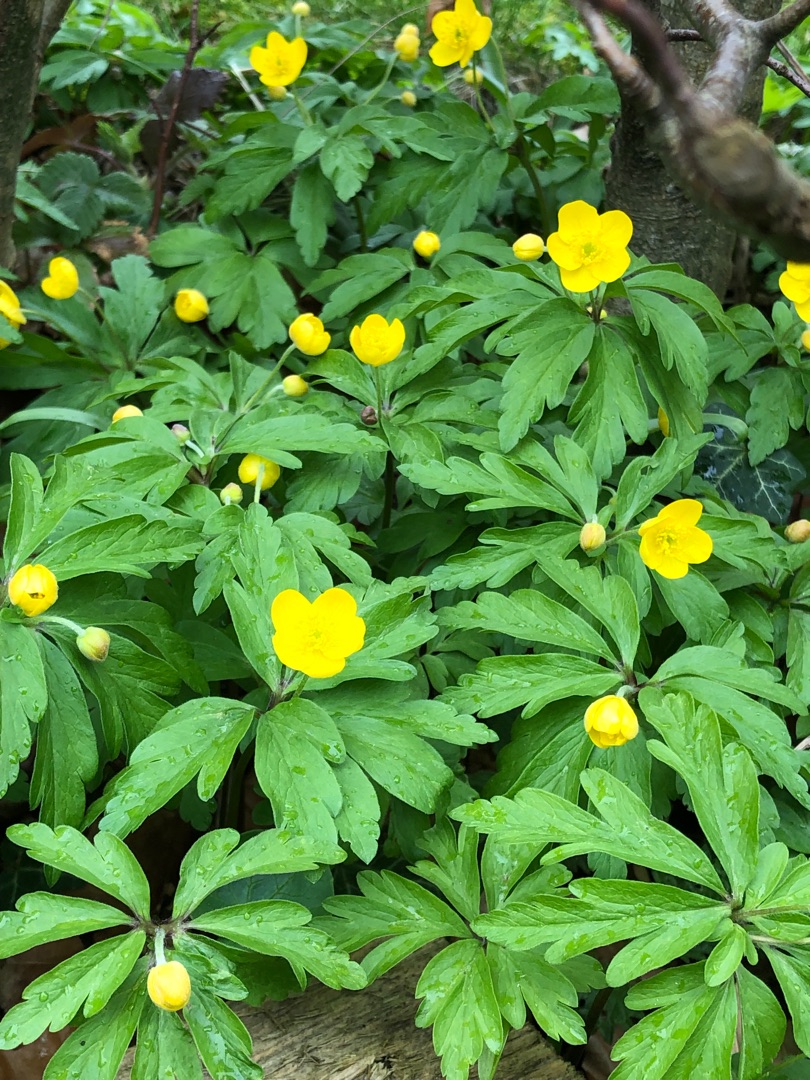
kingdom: Plantae
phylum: Tracheophyta
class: Magnoliopsida
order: Ranunculales
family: Ranunculaceae
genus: Anemone
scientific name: Anemone ranunculoides
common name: Gul anemone
